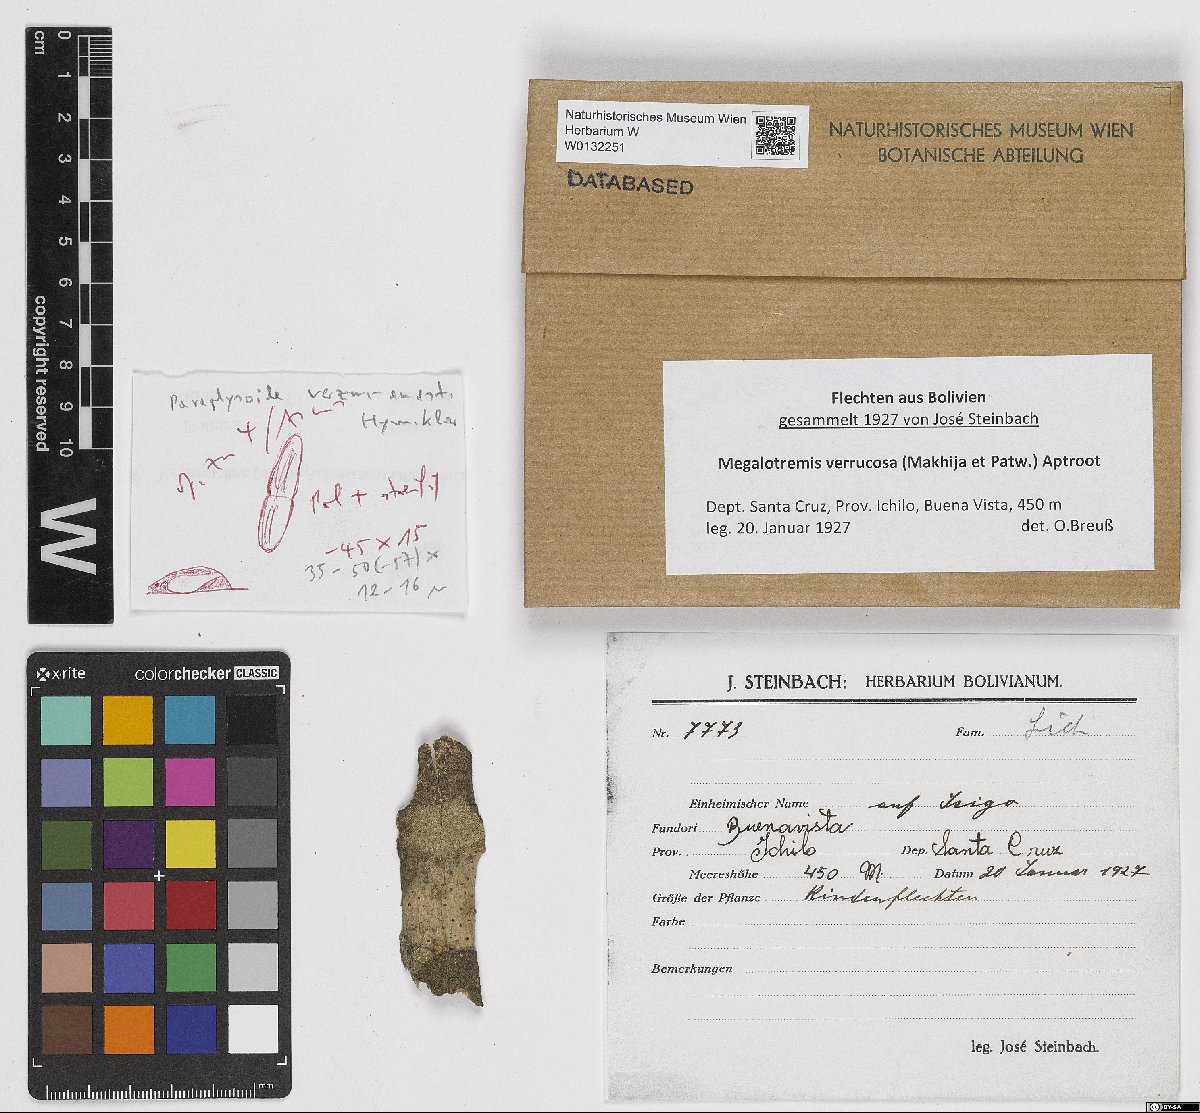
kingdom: Fungi
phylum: Ascomycota
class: Dothideomycetes
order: Monoblastiales
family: Monoblastiaceae
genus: Megalotremis
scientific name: Megalotremis verrucosa
